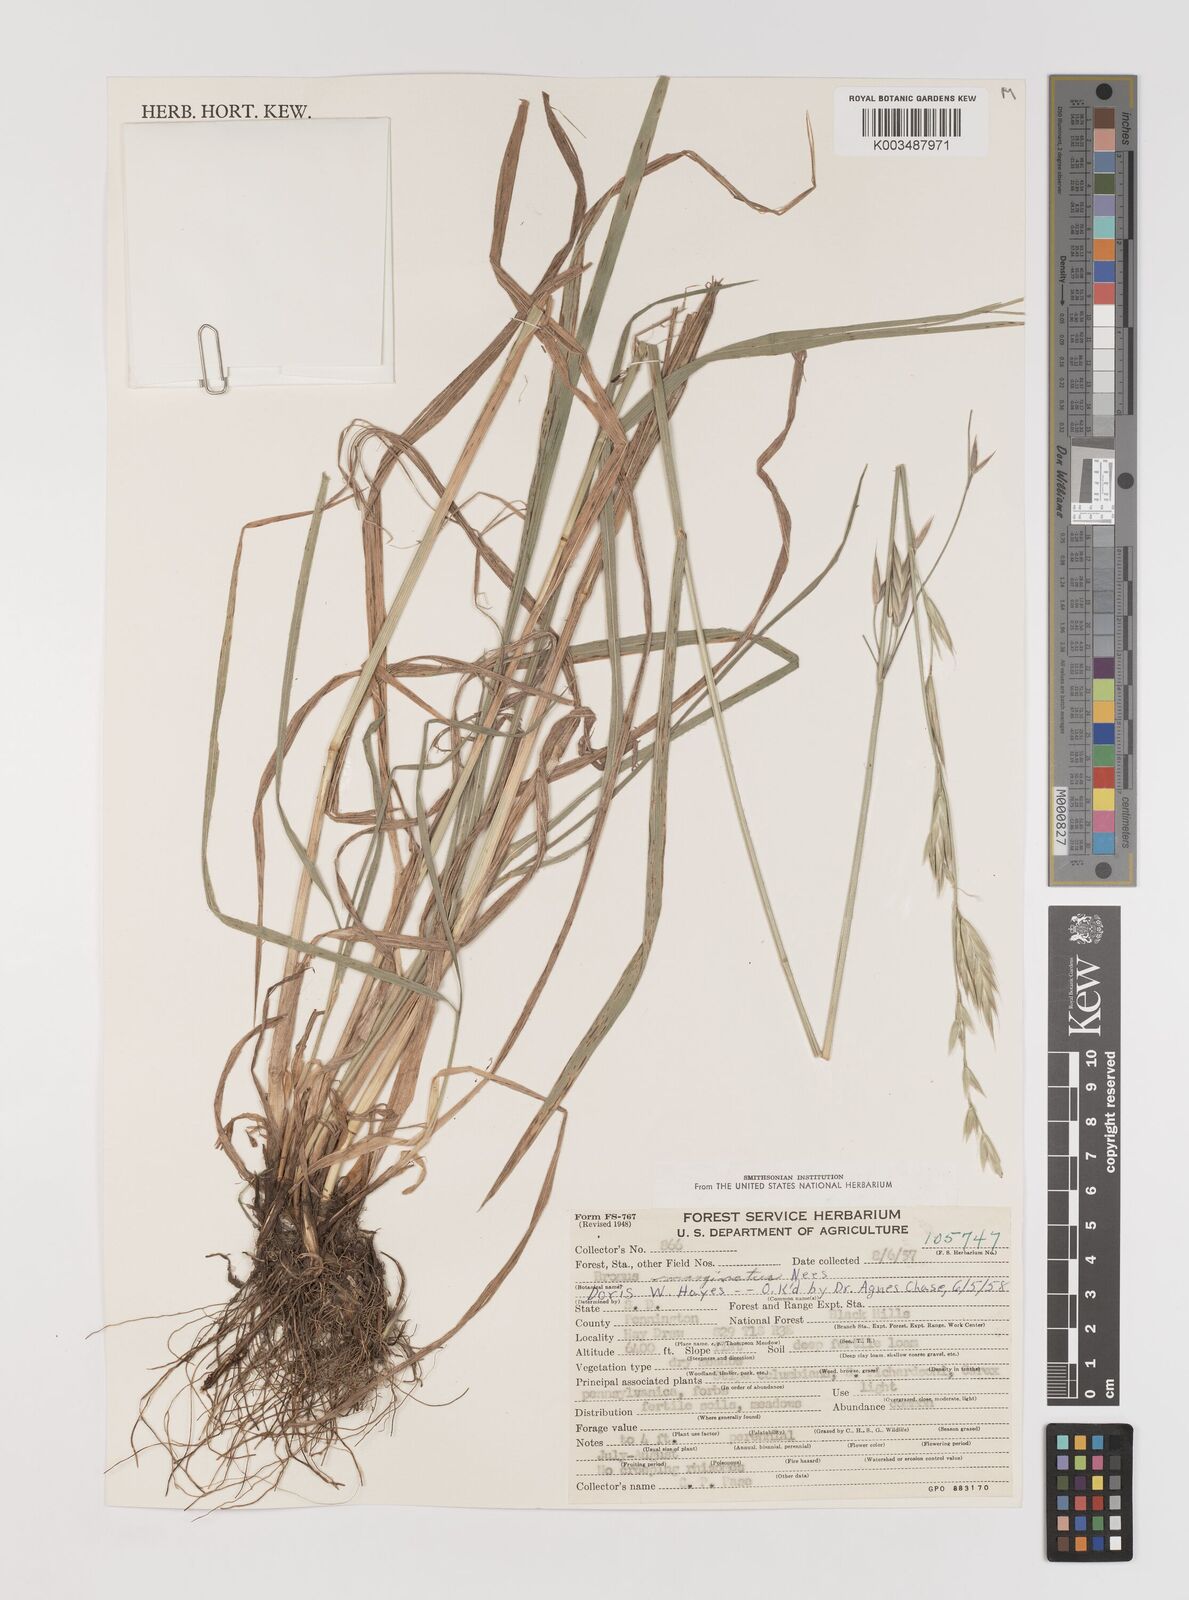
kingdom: Plantae
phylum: Tracheophyta
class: Liliopsida
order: Poales
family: Poaceae
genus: Bromus
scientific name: Bromus marginatus
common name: Western brome
